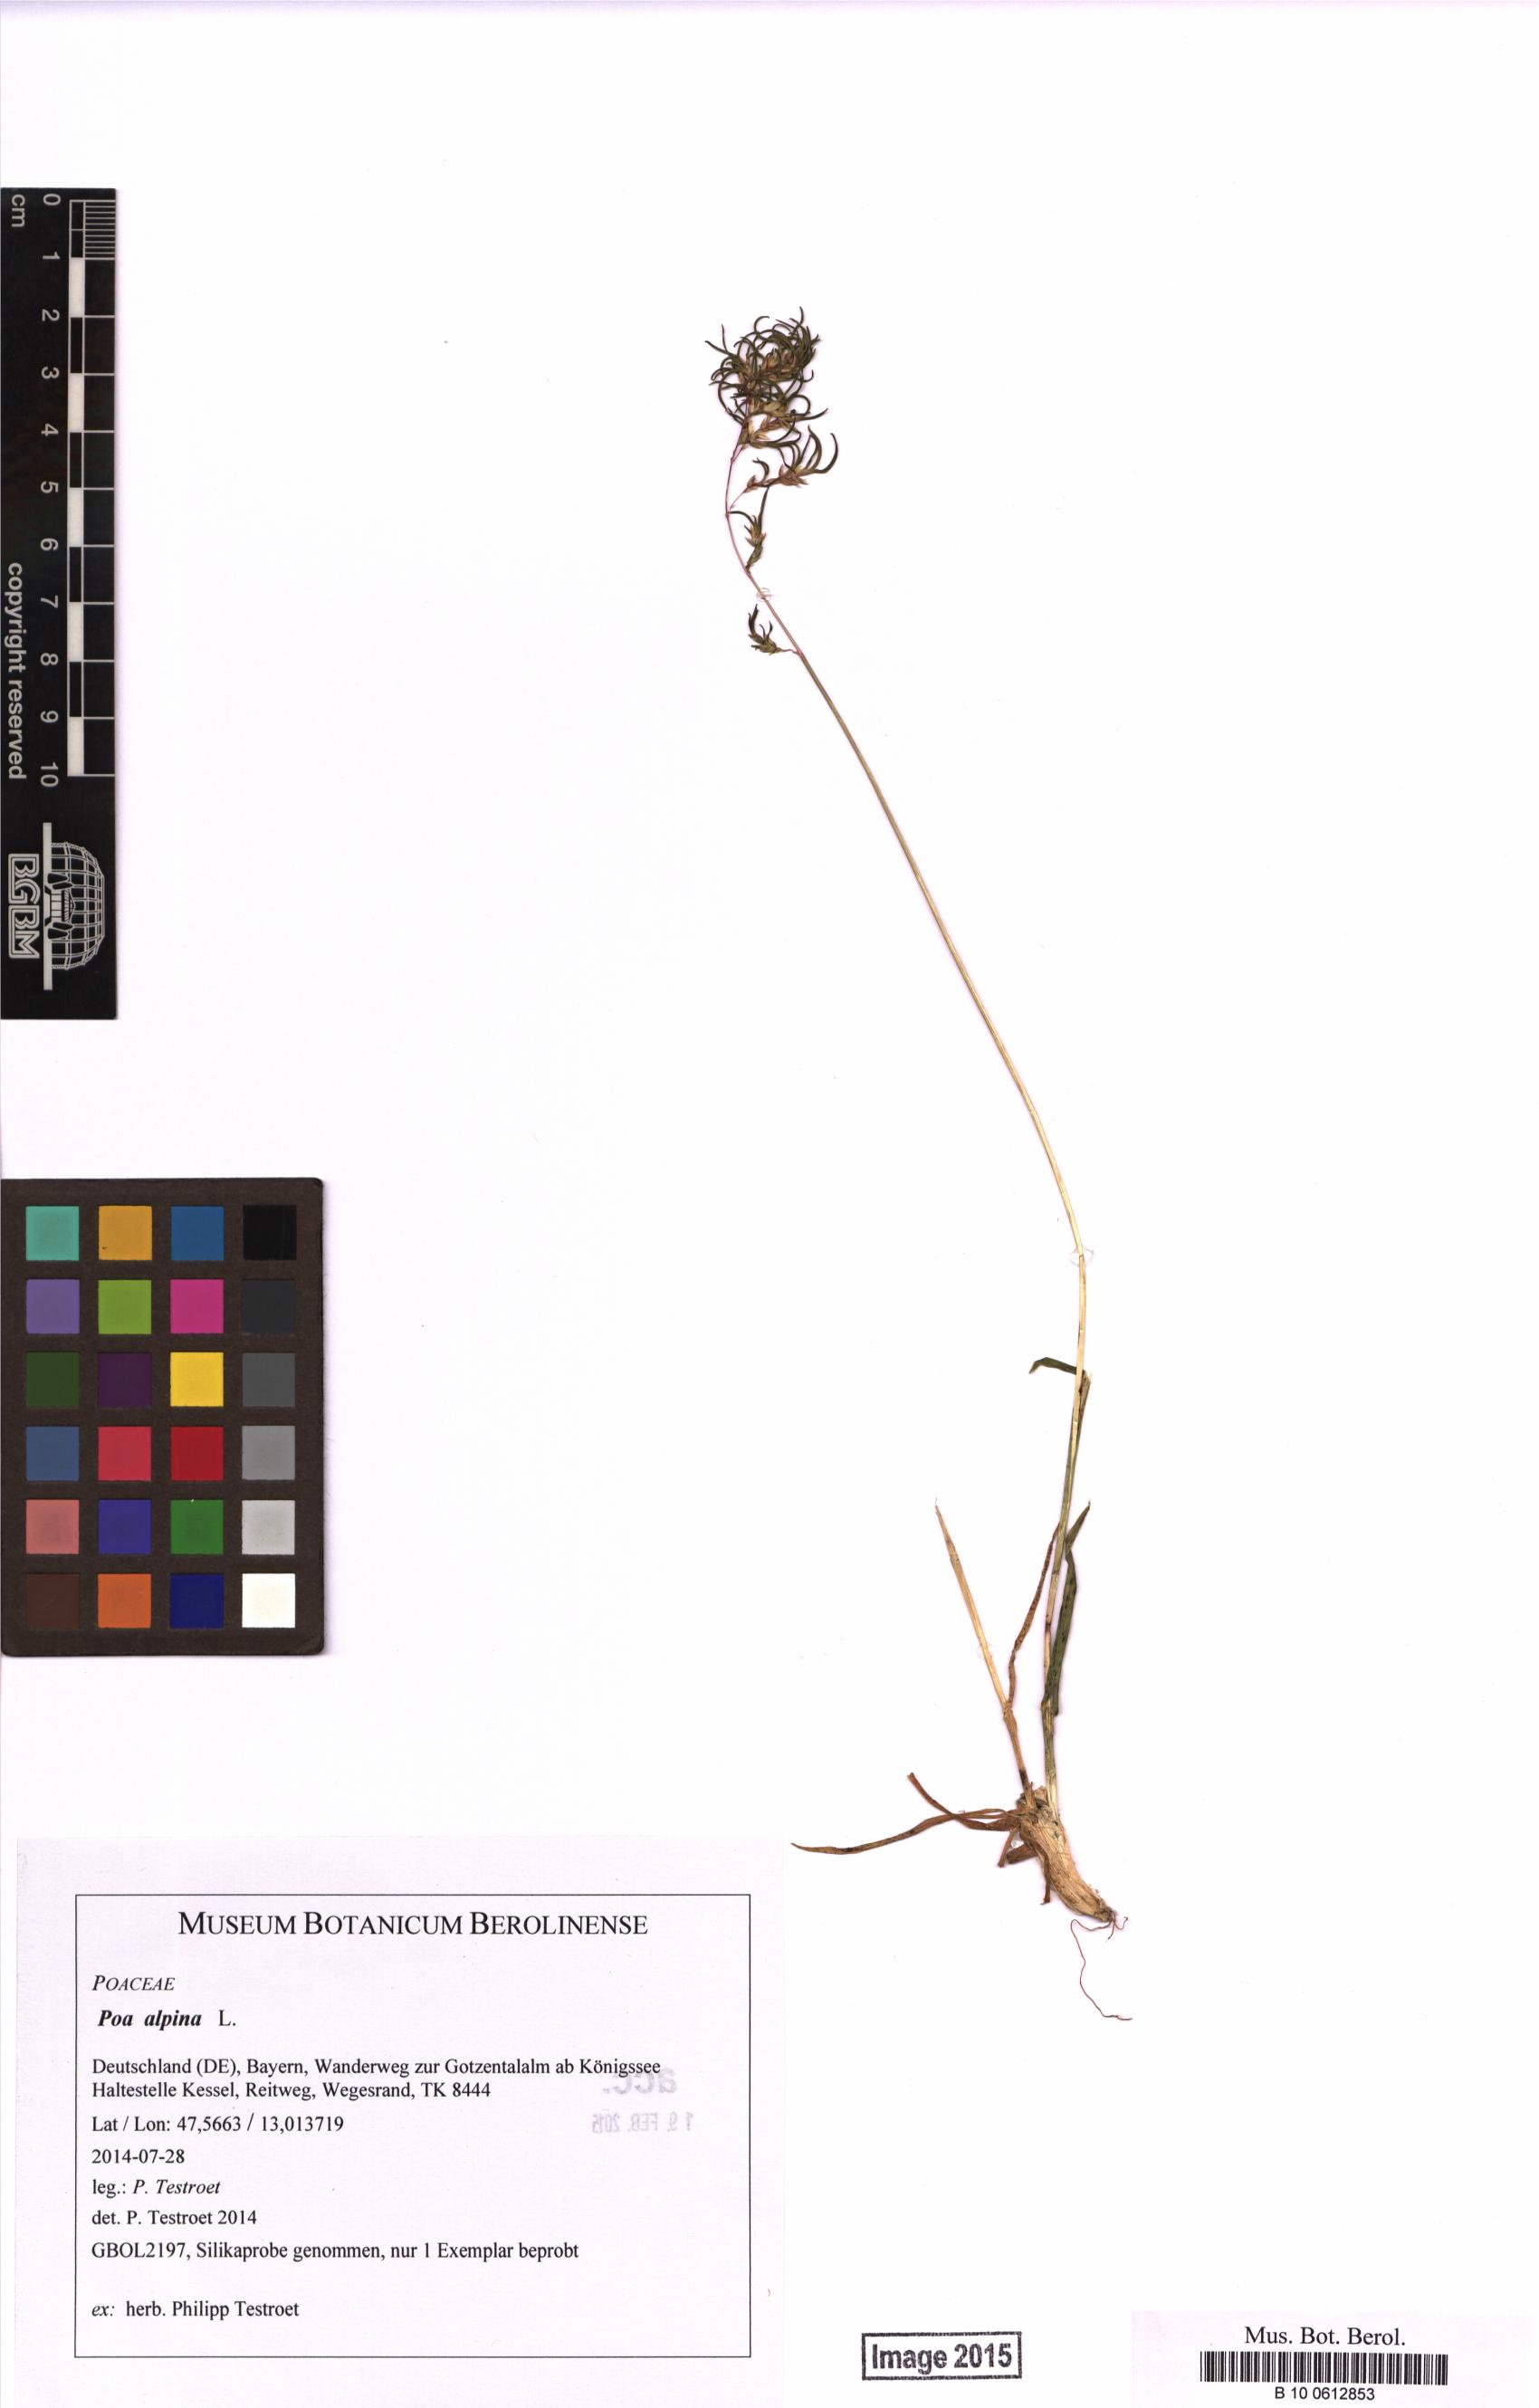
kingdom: Plantae
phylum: Tracheophyta
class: Liliopsida
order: Poales
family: Poaceae
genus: Poa
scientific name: Poa alpina
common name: Alpine bluegrass
